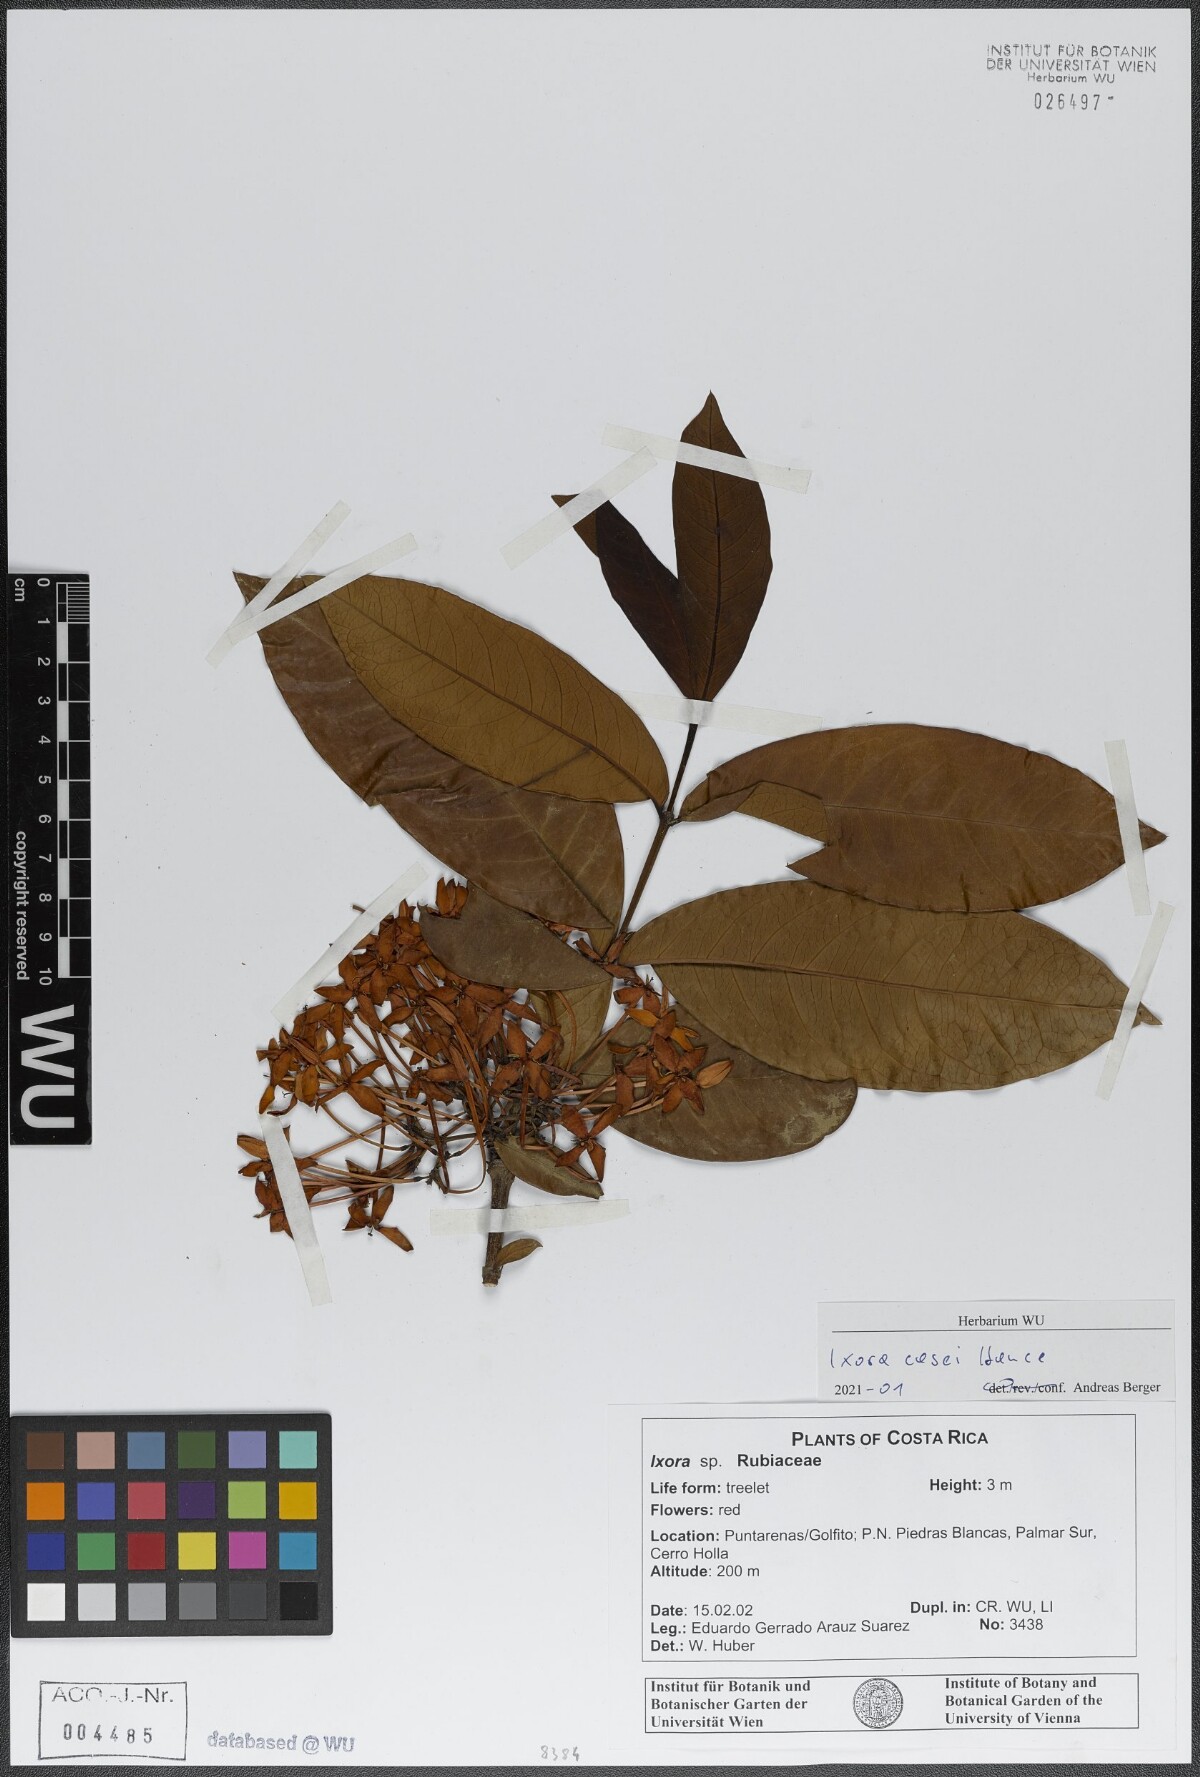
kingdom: Plantae
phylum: Tracheophyta
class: Magnoliopsida
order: Gentianales
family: Rubiaceae
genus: Ixora
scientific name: Ixora casei
